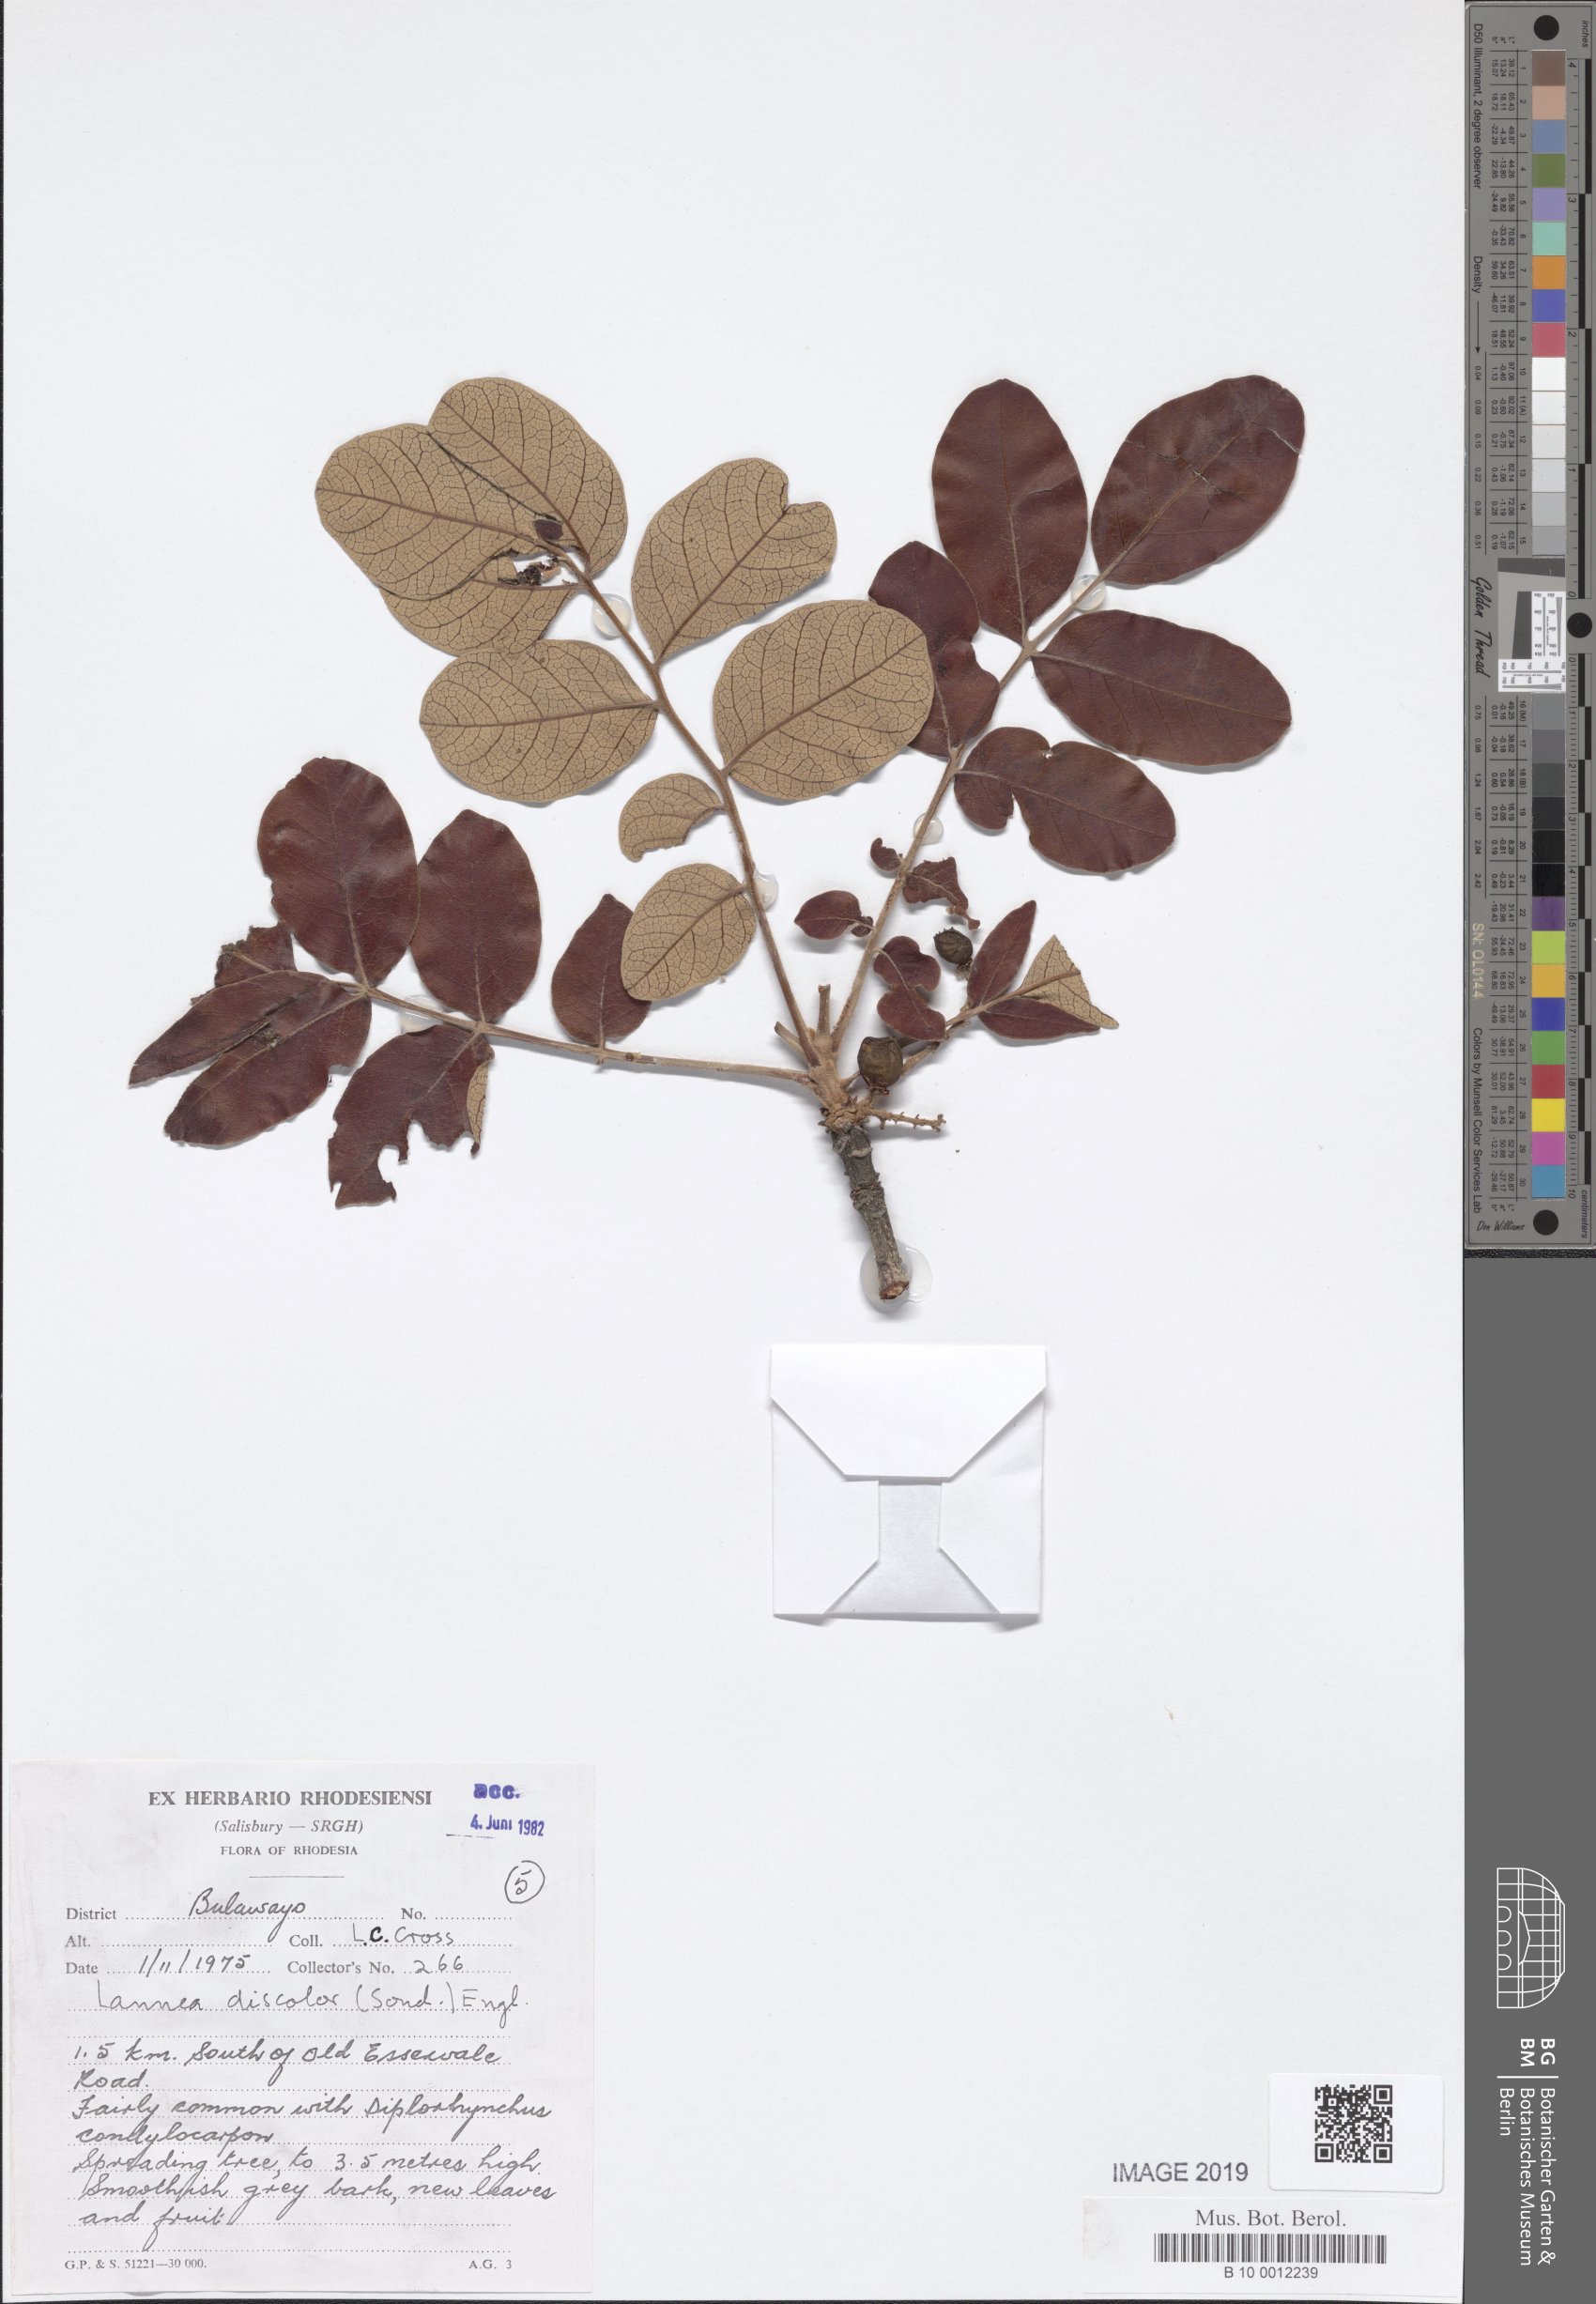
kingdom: Plantae
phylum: Tracheophyta
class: Magnoliopsida
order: Sapindales
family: Anacardiaceae
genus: Lannea
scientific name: Lannea discolor
